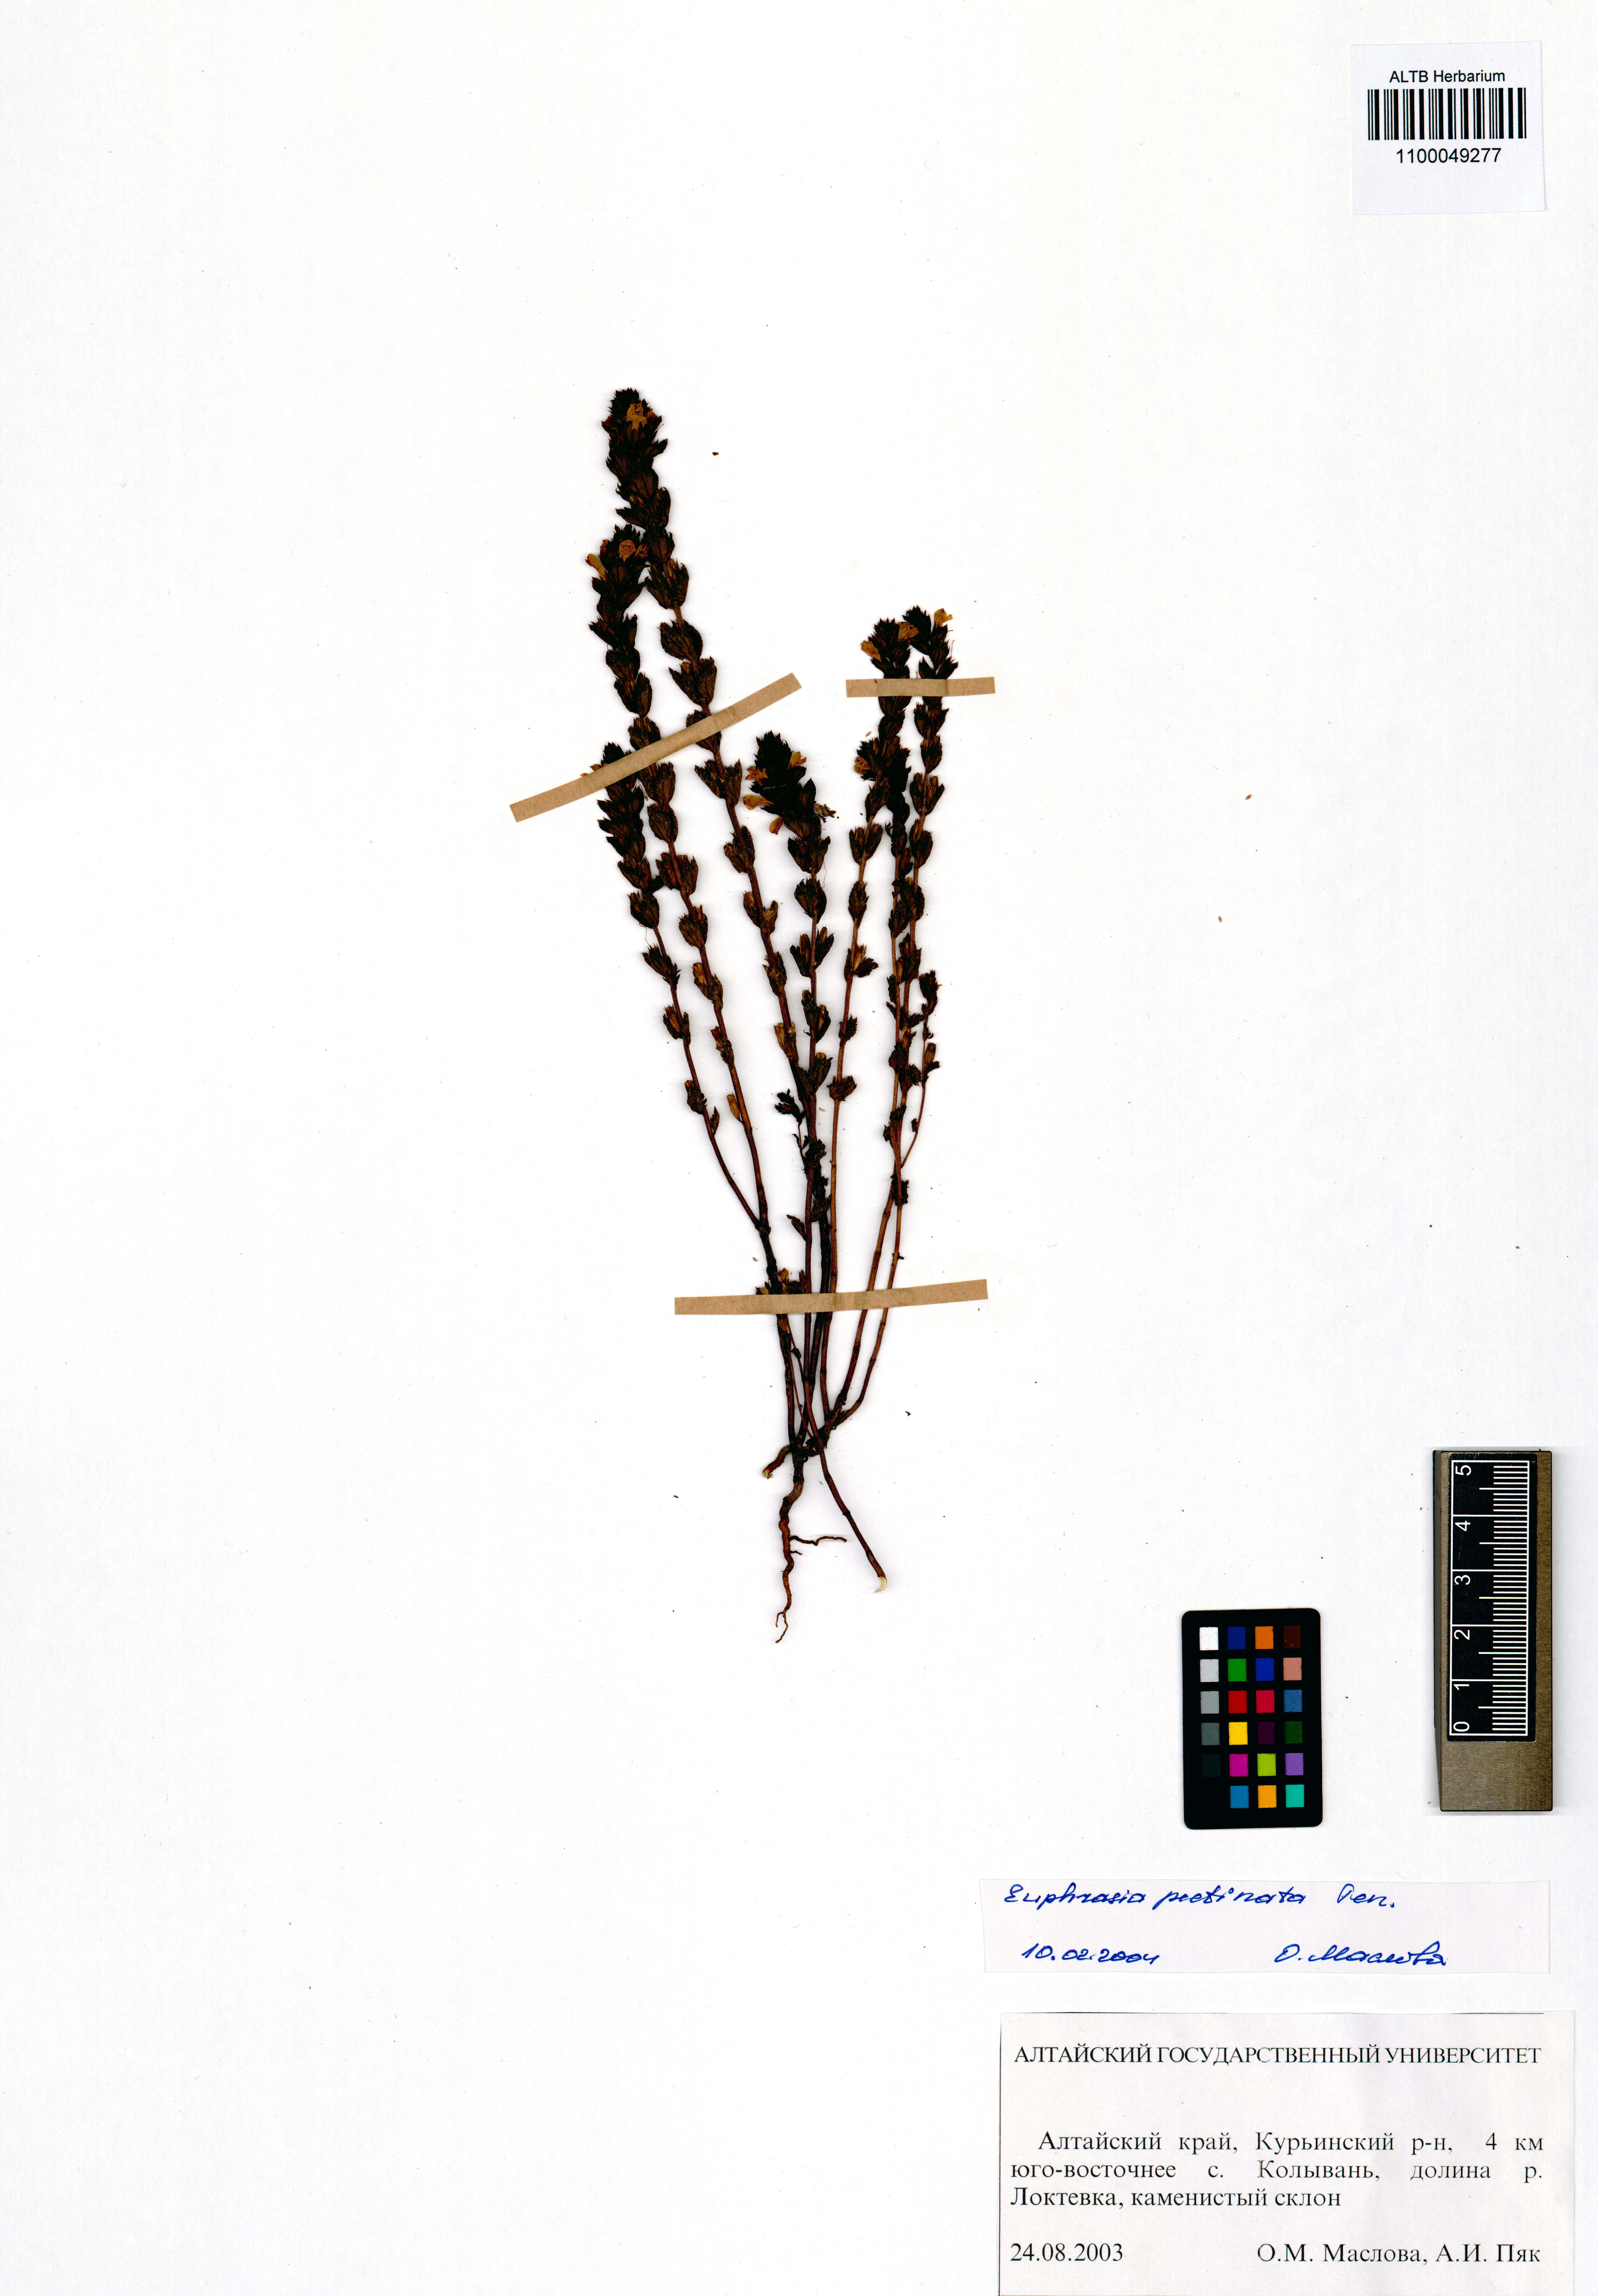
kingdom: Plantae
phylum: Tracheophyta
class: Magnoliopsida
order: Lamiales
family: Orobanchaceae
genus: Euphrasia
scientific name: Euphrasia pectinata
